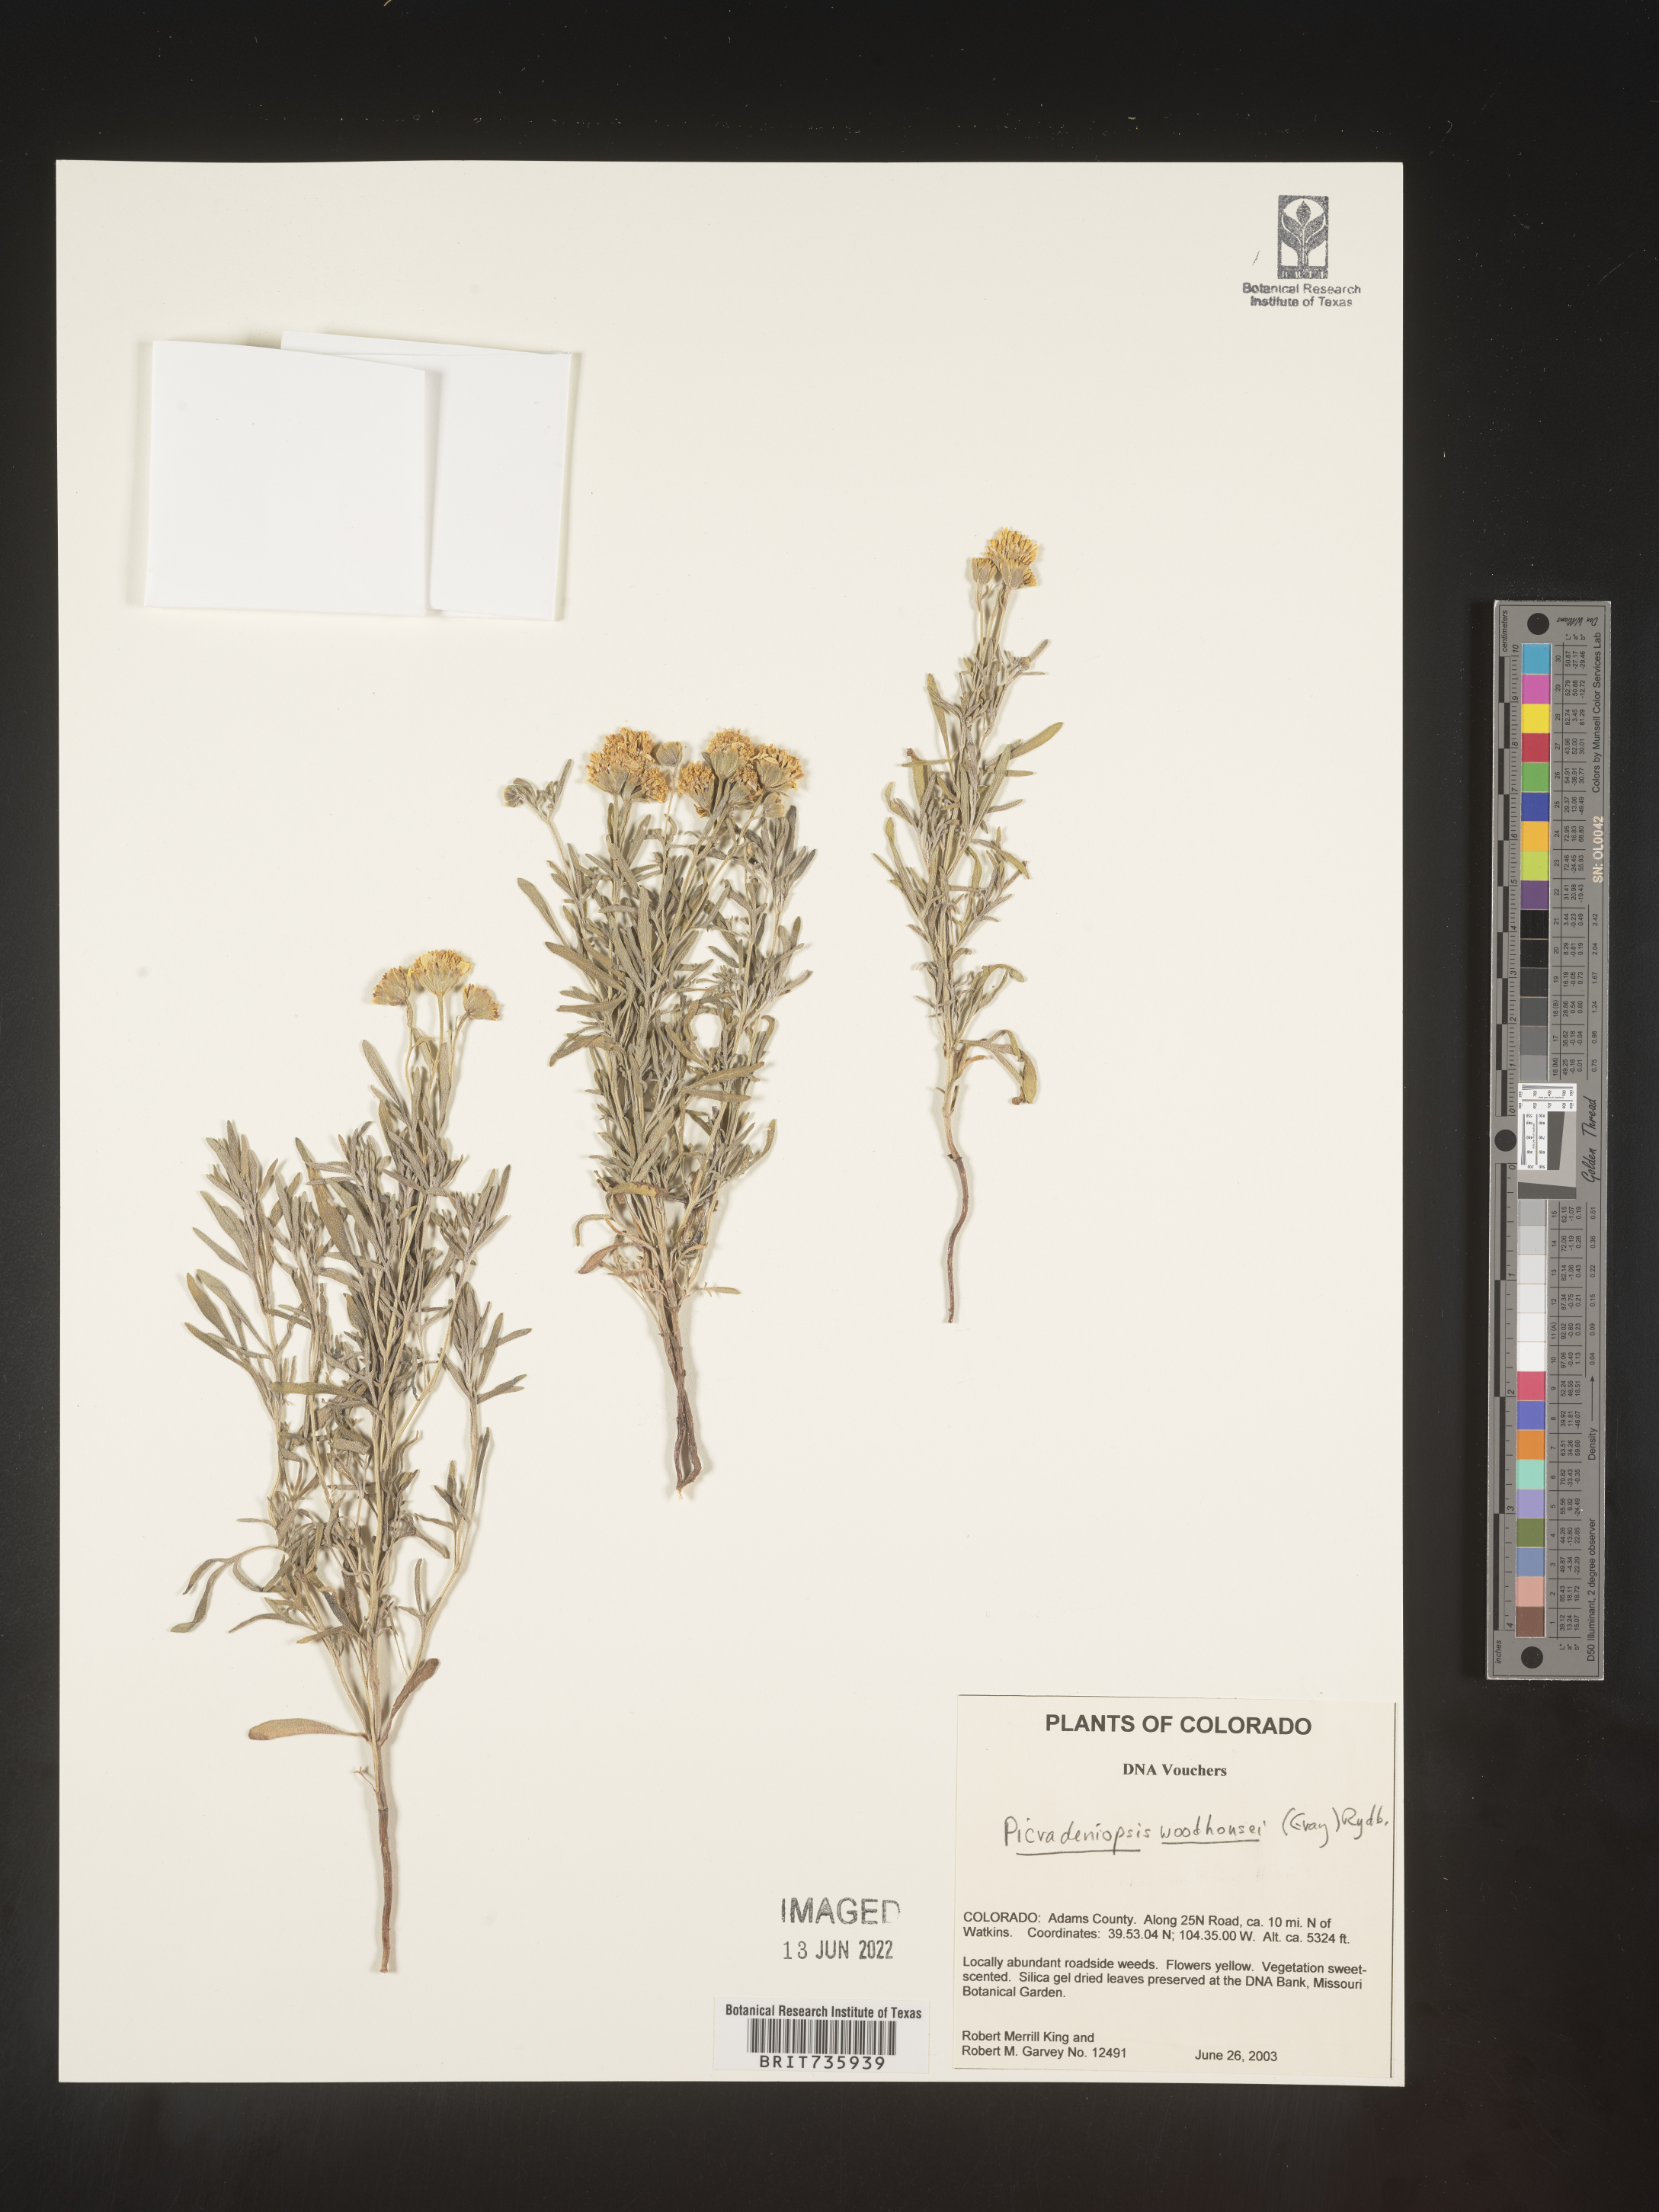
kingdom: Plantae
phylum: Tracheophyta
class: Magnoliopsida
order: Asterales
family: Asteraceae
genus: Picradeniopsis
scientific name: Picradeniopsis woodhousei
